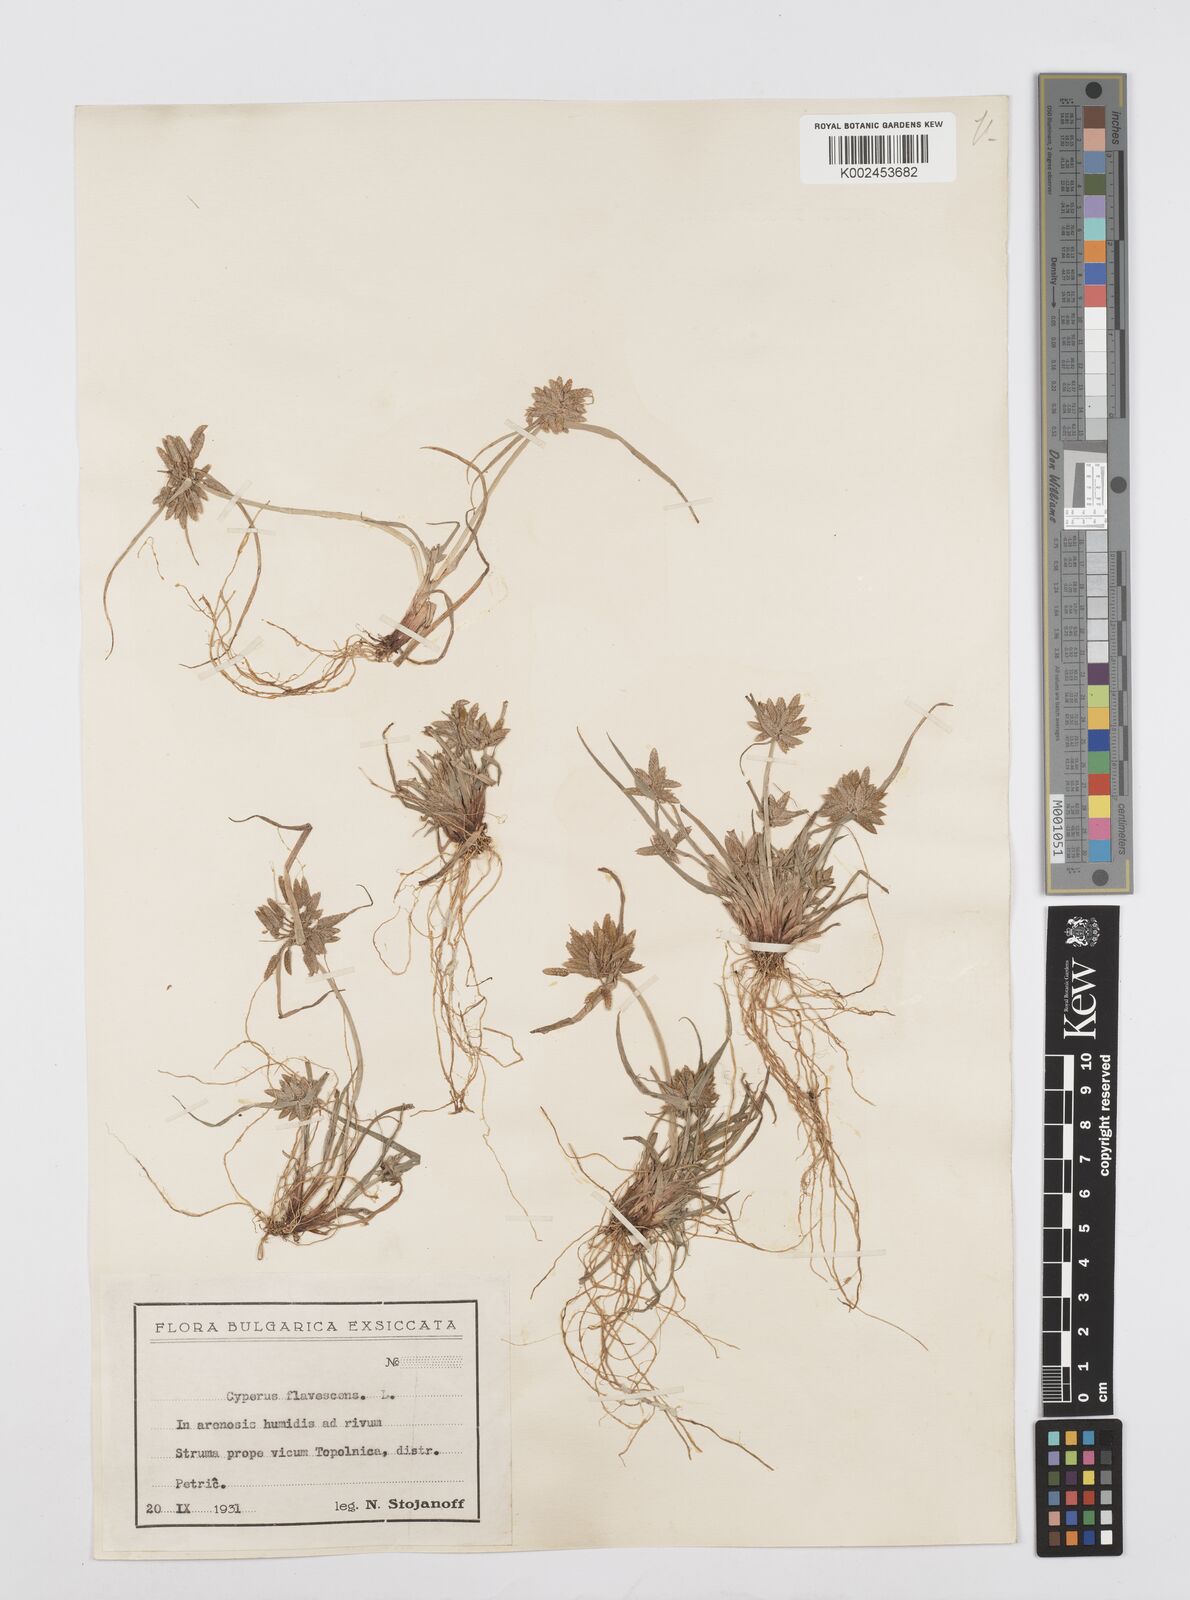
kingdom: Plantae
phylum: Tracheophyta
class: Liliopsida
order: Poales
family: Cyperaceae
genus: Cyperus
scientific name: Cyperus flavescens
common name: Yellow galingale
